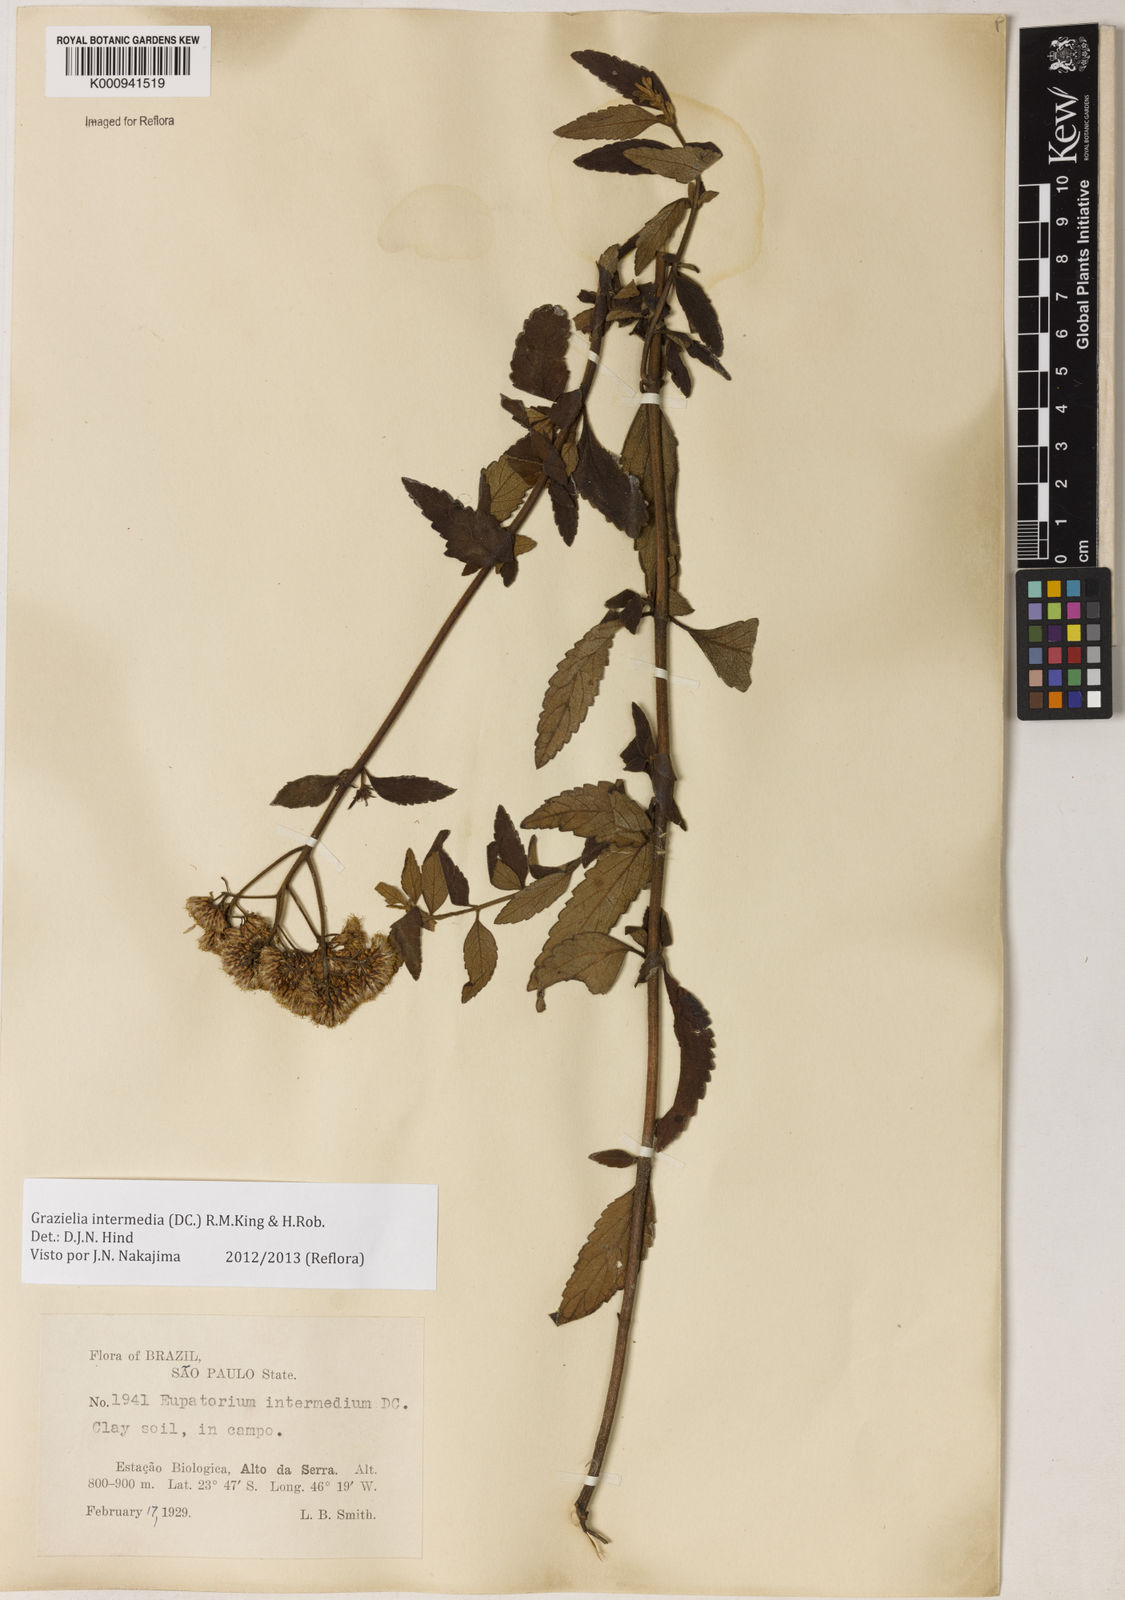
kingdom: Plantae
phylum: Tracheophyta
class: Magnoliopsida
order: Asterales
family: Asteraceae
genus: Grazielia
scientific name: Grazielia intermedia
